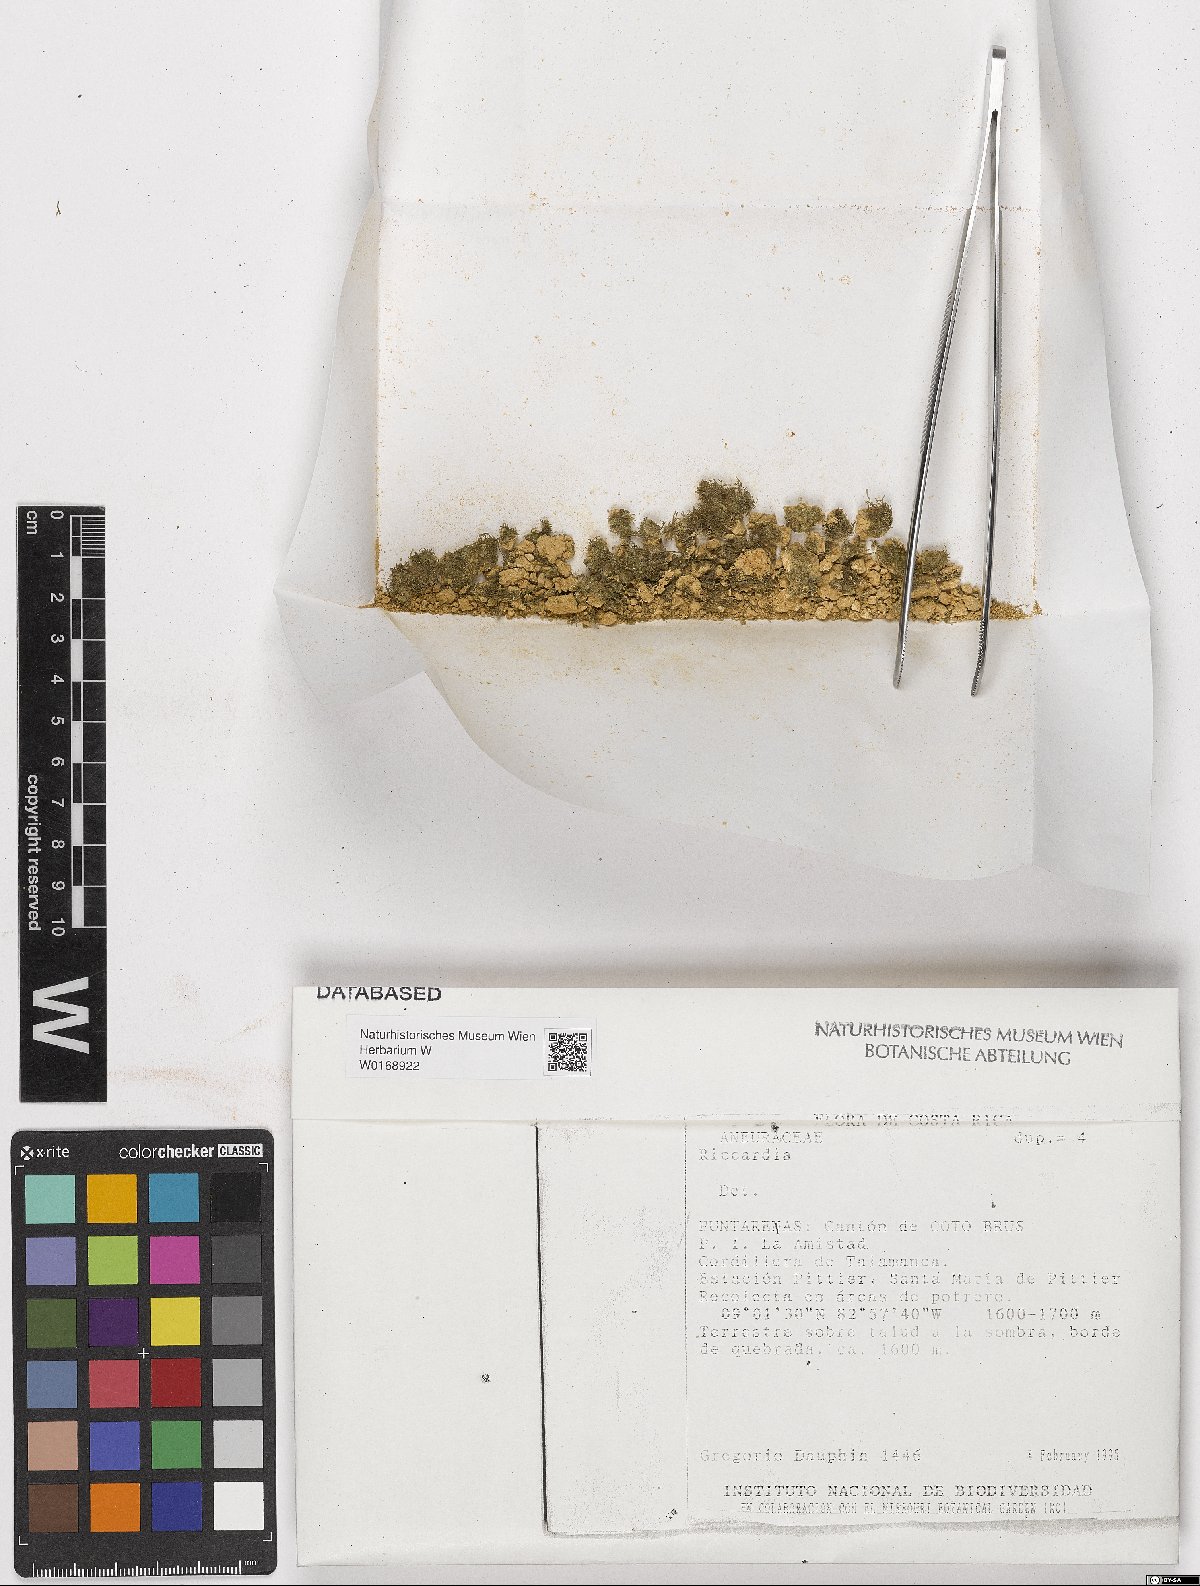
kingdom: Plantae
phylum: Marchantiophyta
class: Jungermanniopsida
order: Metzgeriales
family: Aneuraceae
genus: Riccardia
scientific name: Riccardia
